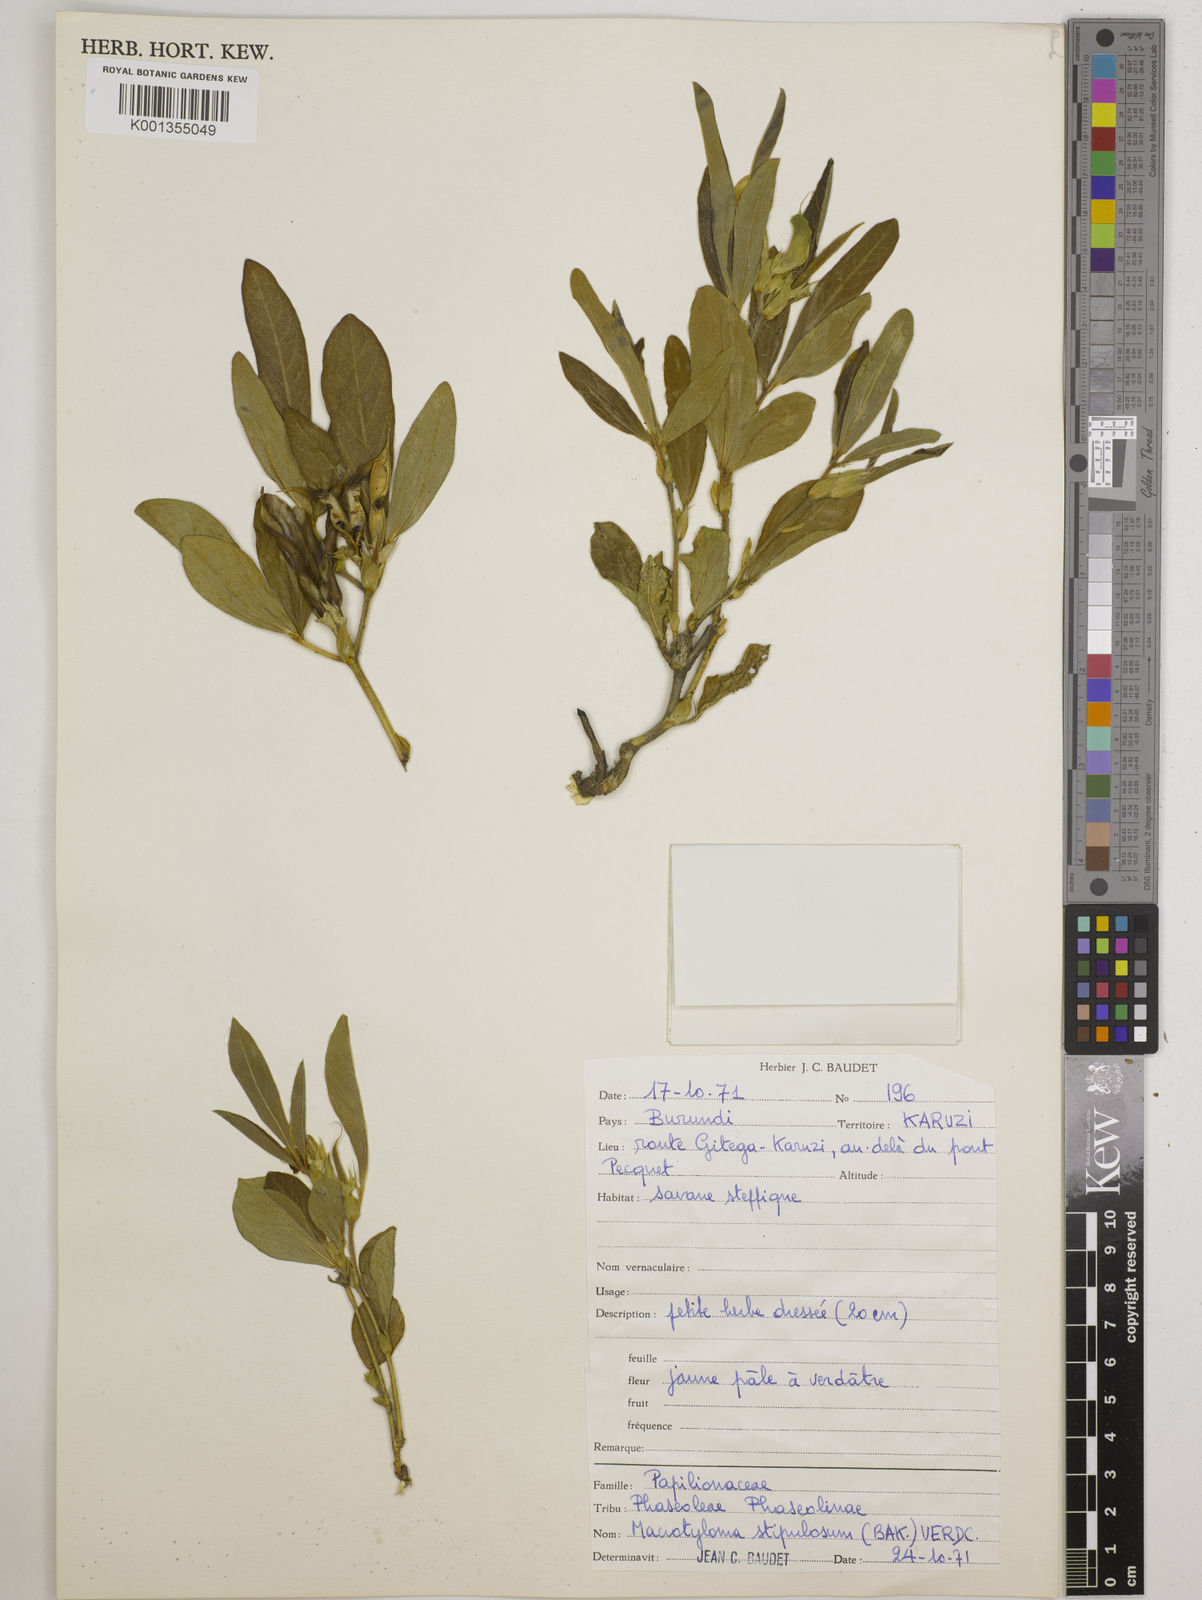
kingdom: Plantae
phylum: Tracheophyta
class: Magnoliopsida
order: Fabales
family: Fabaceae
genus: Macrotyloma
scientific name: Macrotyloma stipulosum
